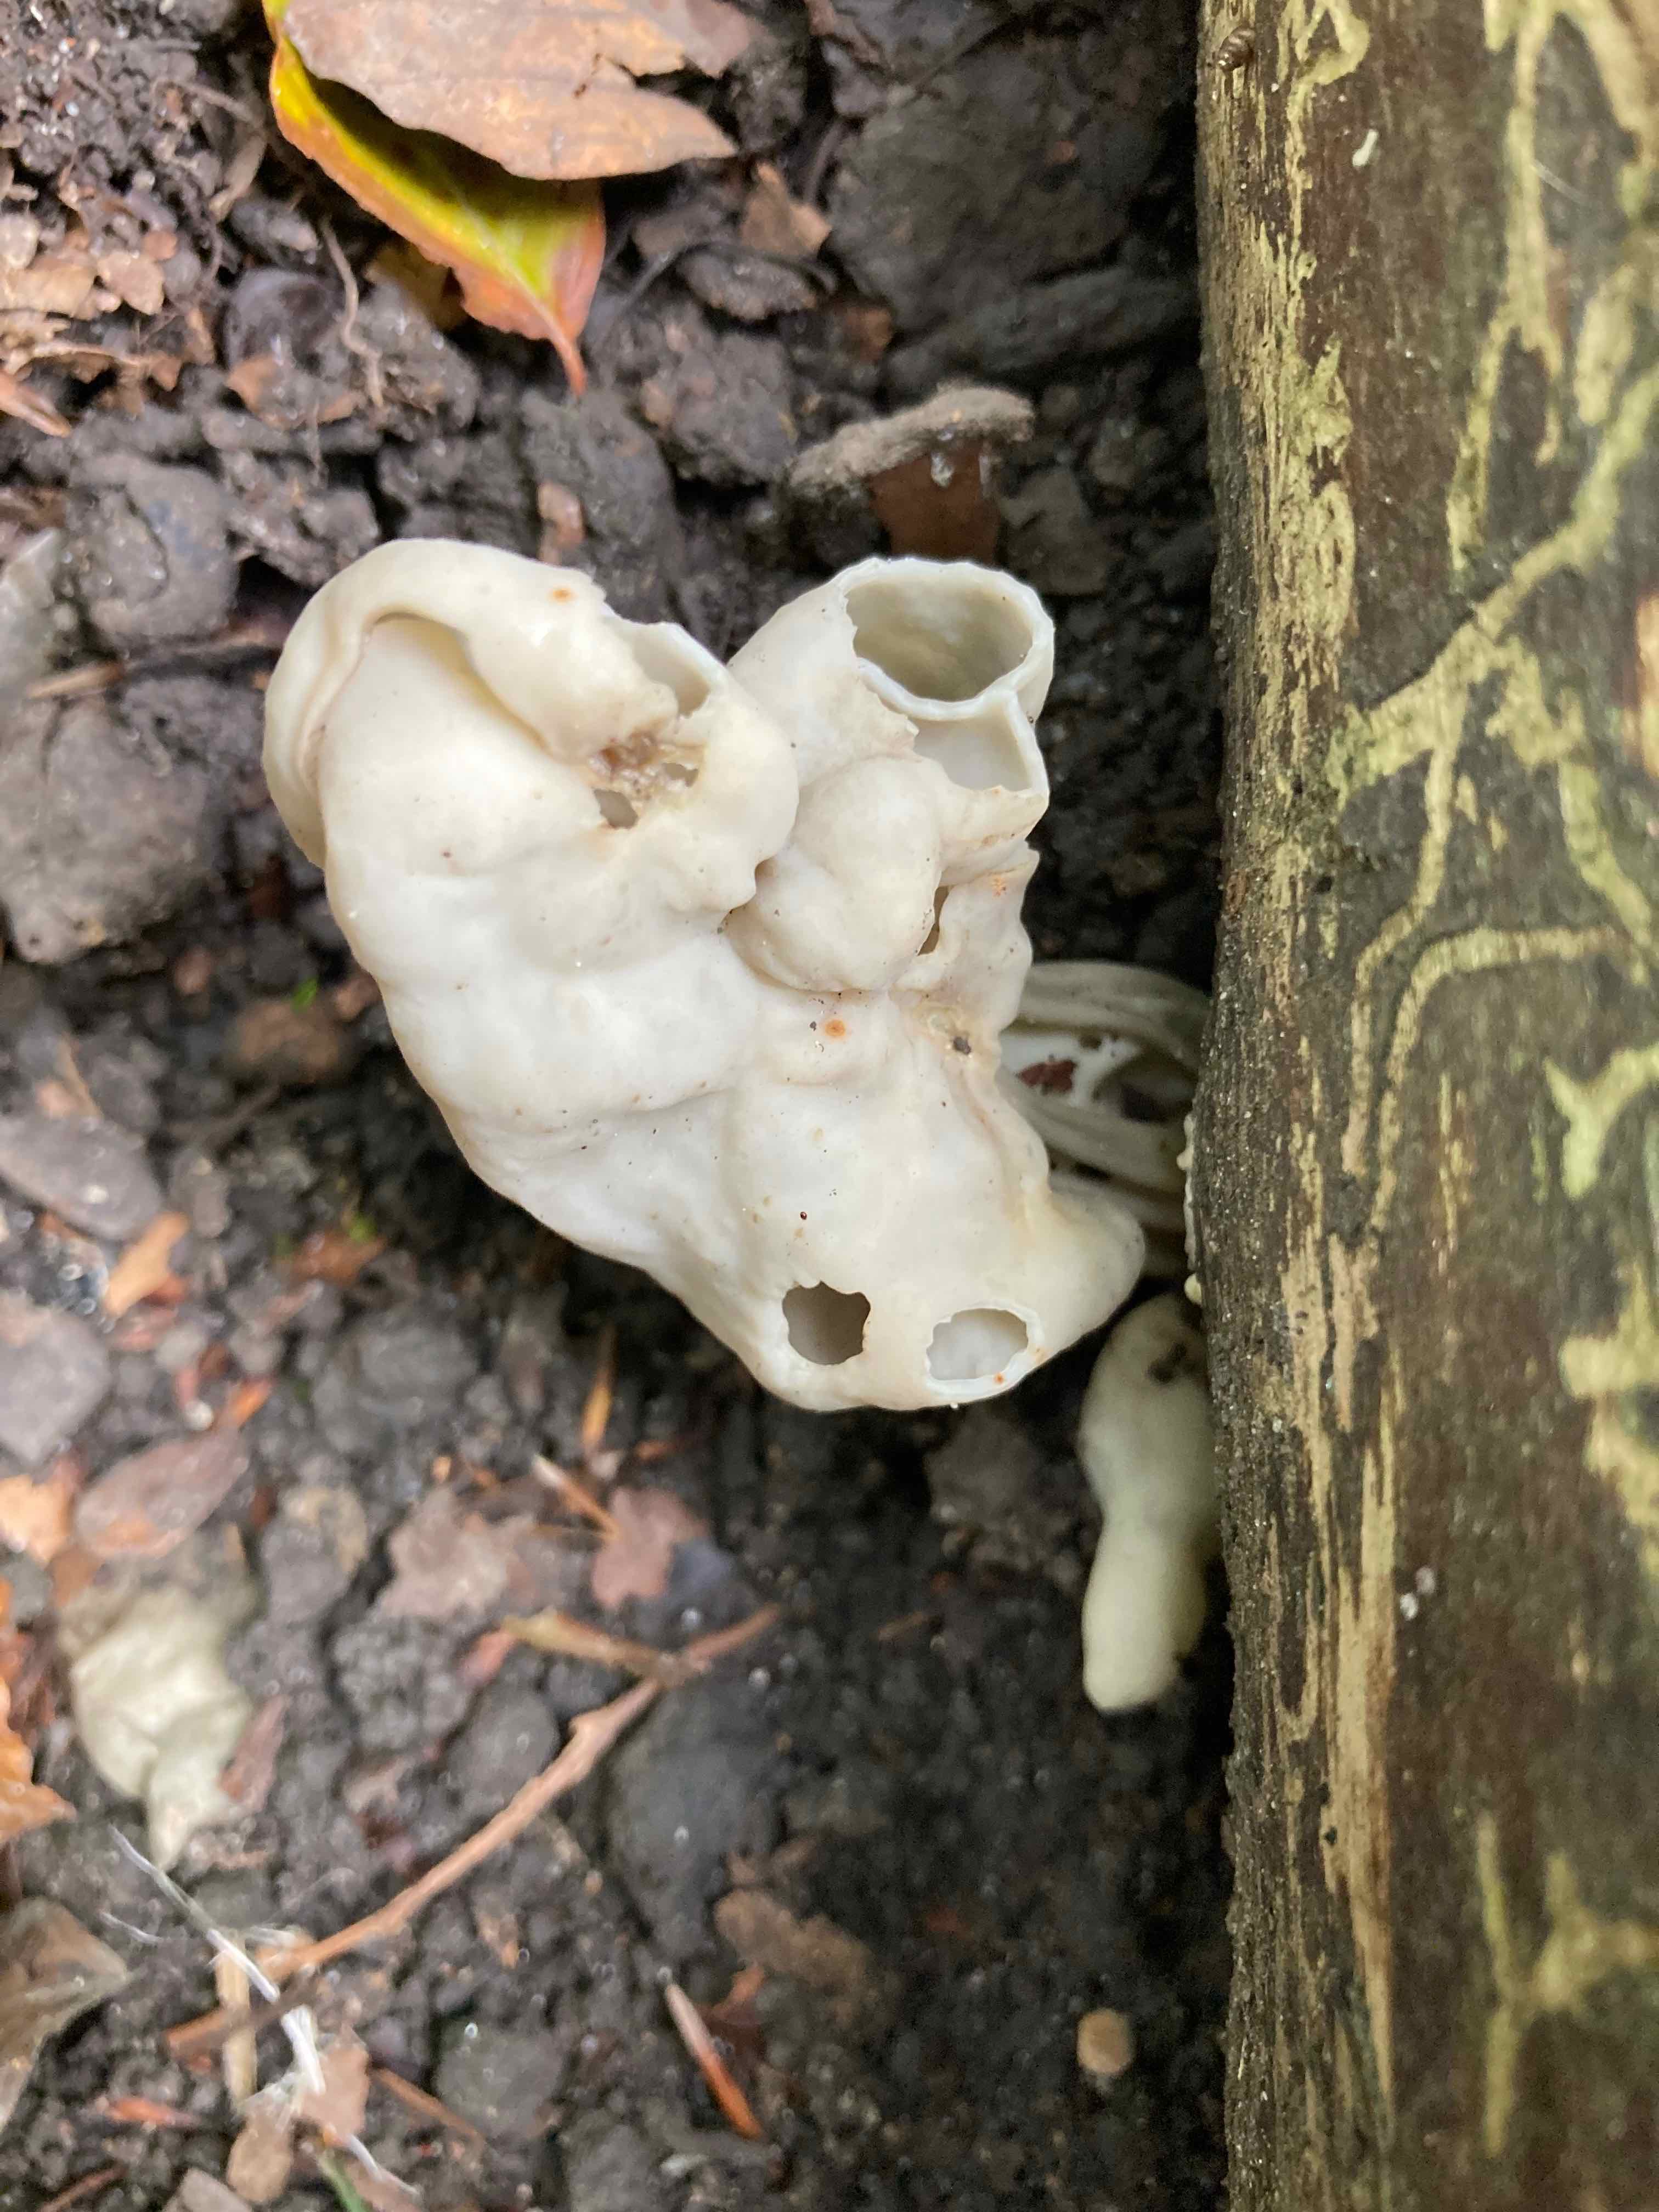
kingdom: Fungi
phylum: Ascomycota
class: Pezizomycetes
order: Pezizales
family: Helvellaceae
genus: Helvella
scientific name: Helvella crispa
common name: kruset foldhat
